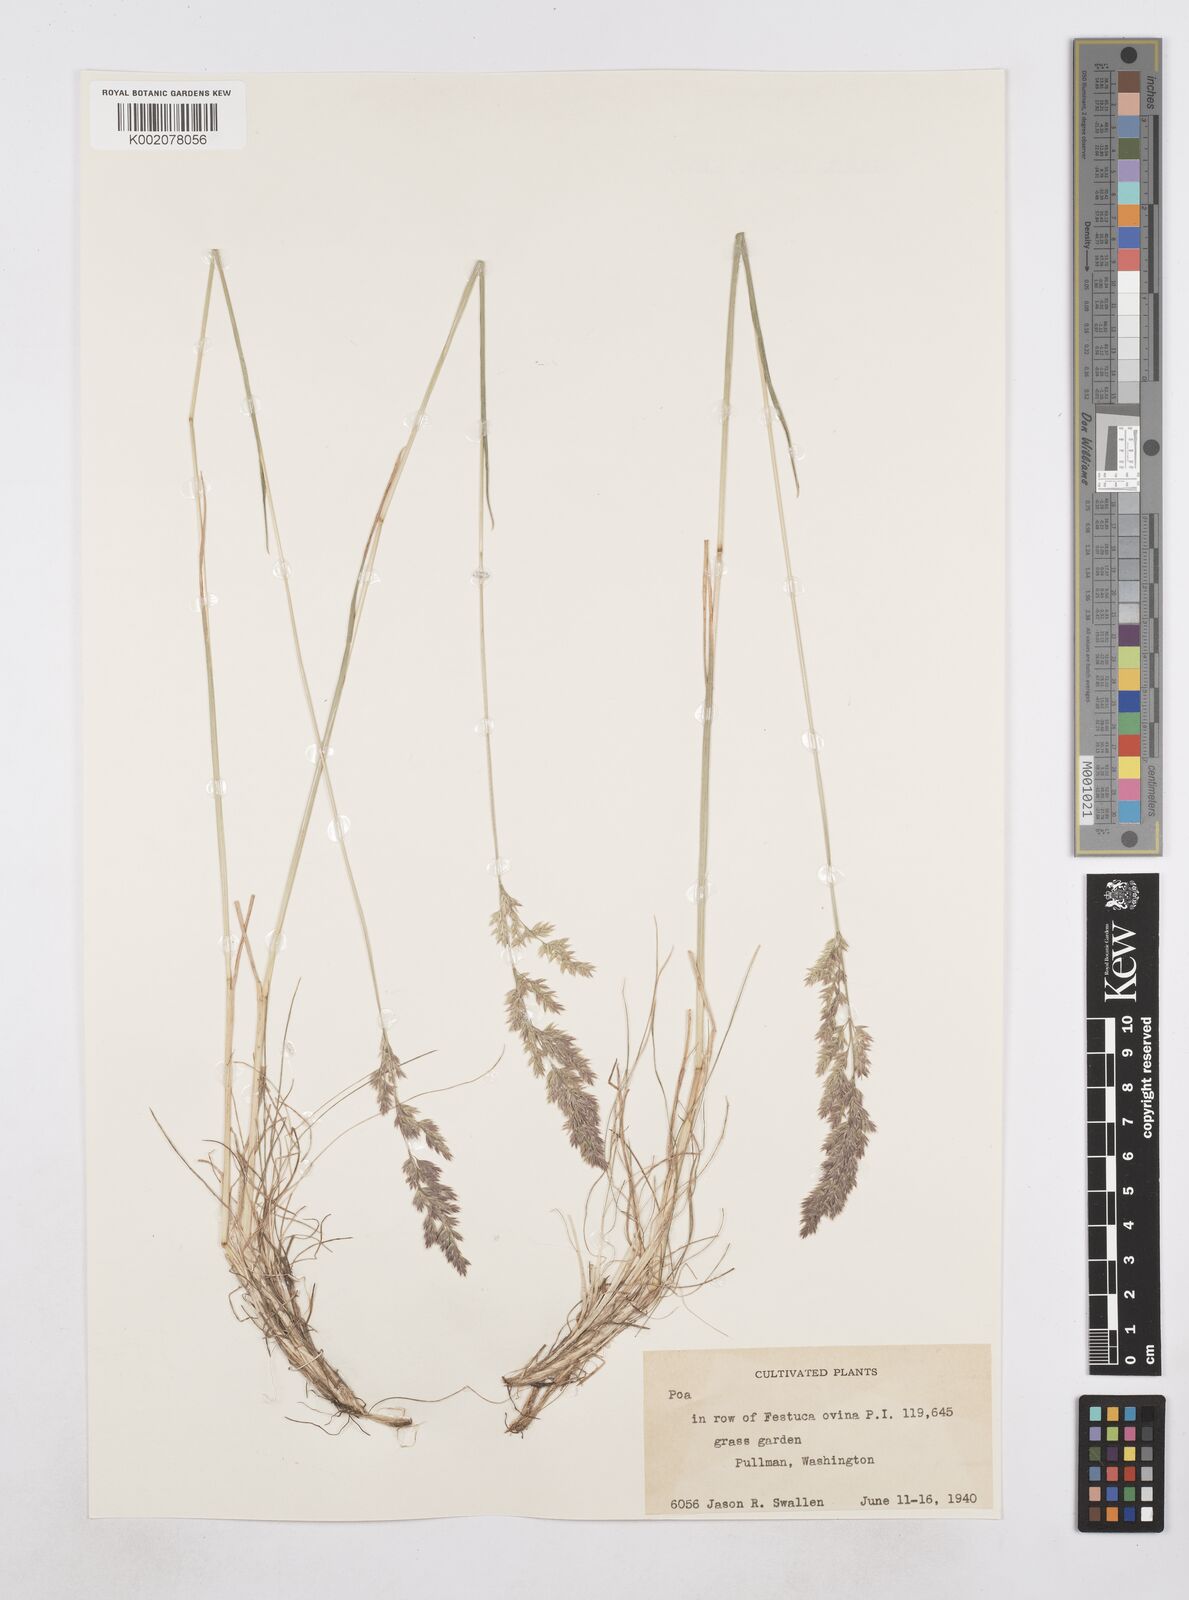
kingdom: Plantae
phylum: Tracheophyta
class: Liliopsida
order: Poales
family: Poaceae
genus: Poa
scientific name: Poa
